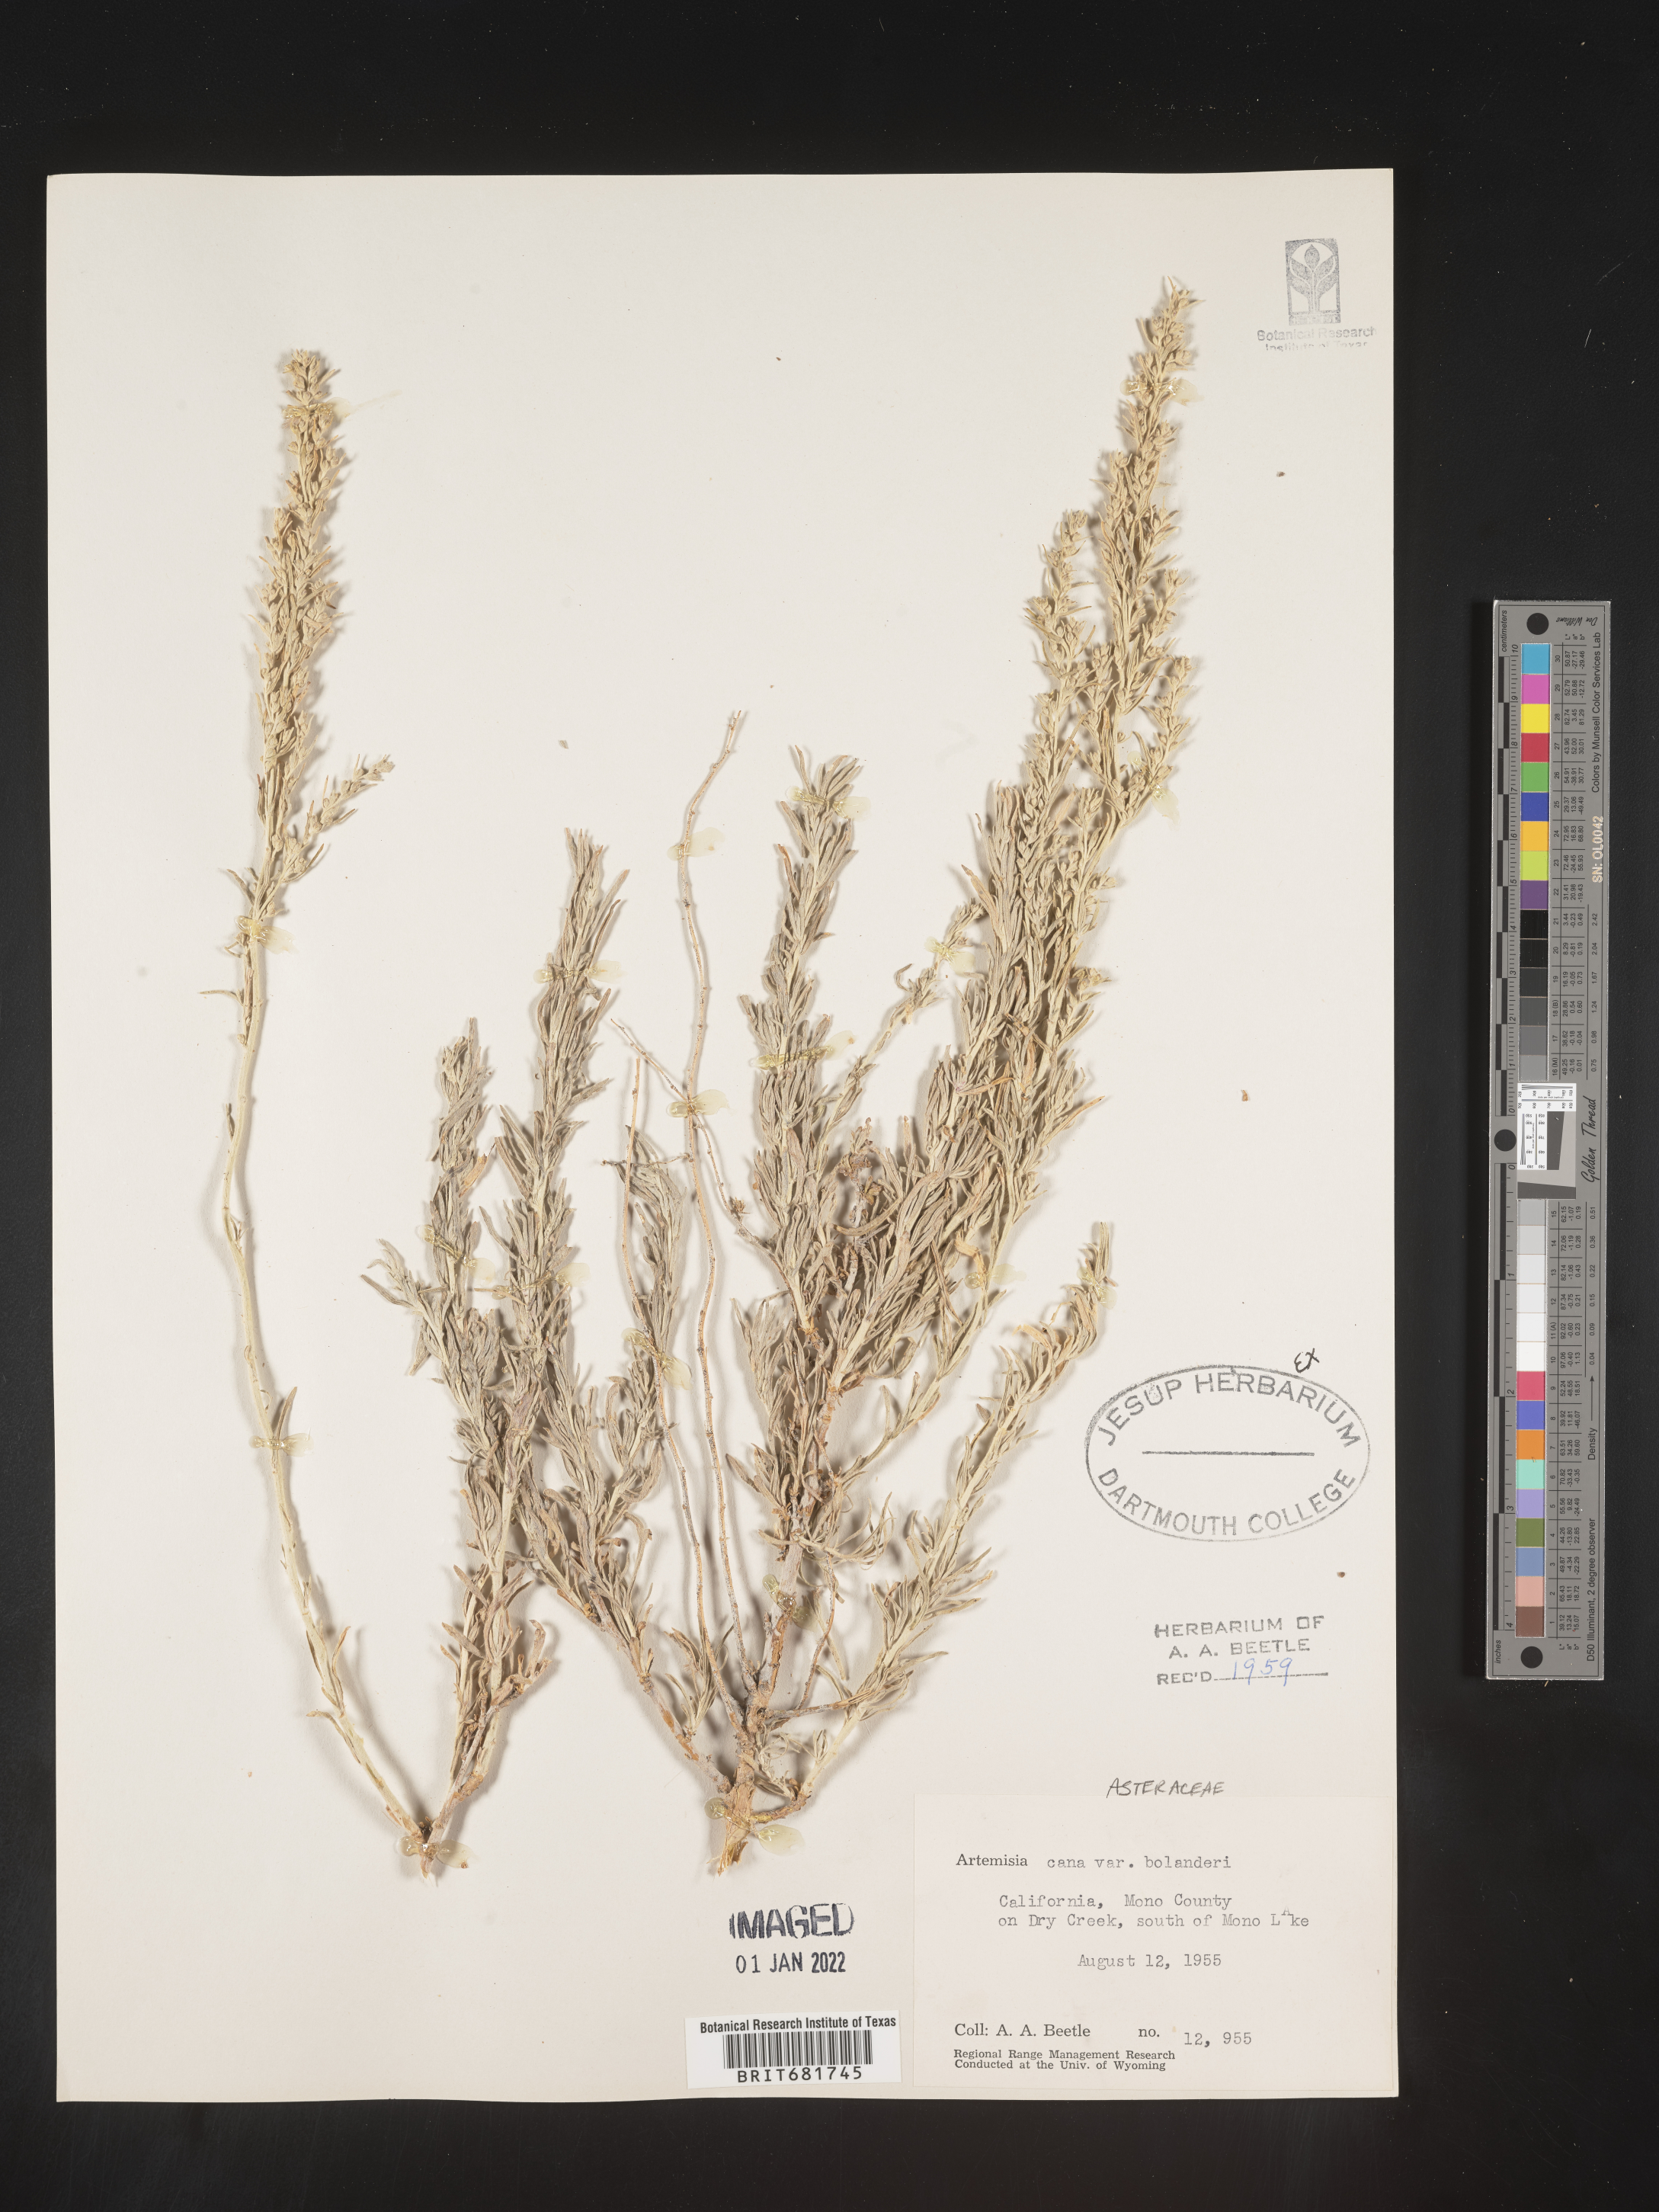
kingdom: Plantae
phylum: Tracheophyta
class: Magnoliopsida
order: Asterales
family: Asteraceae
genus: Artemisia
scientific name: Artemisia cana
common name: Silver sagebrush
